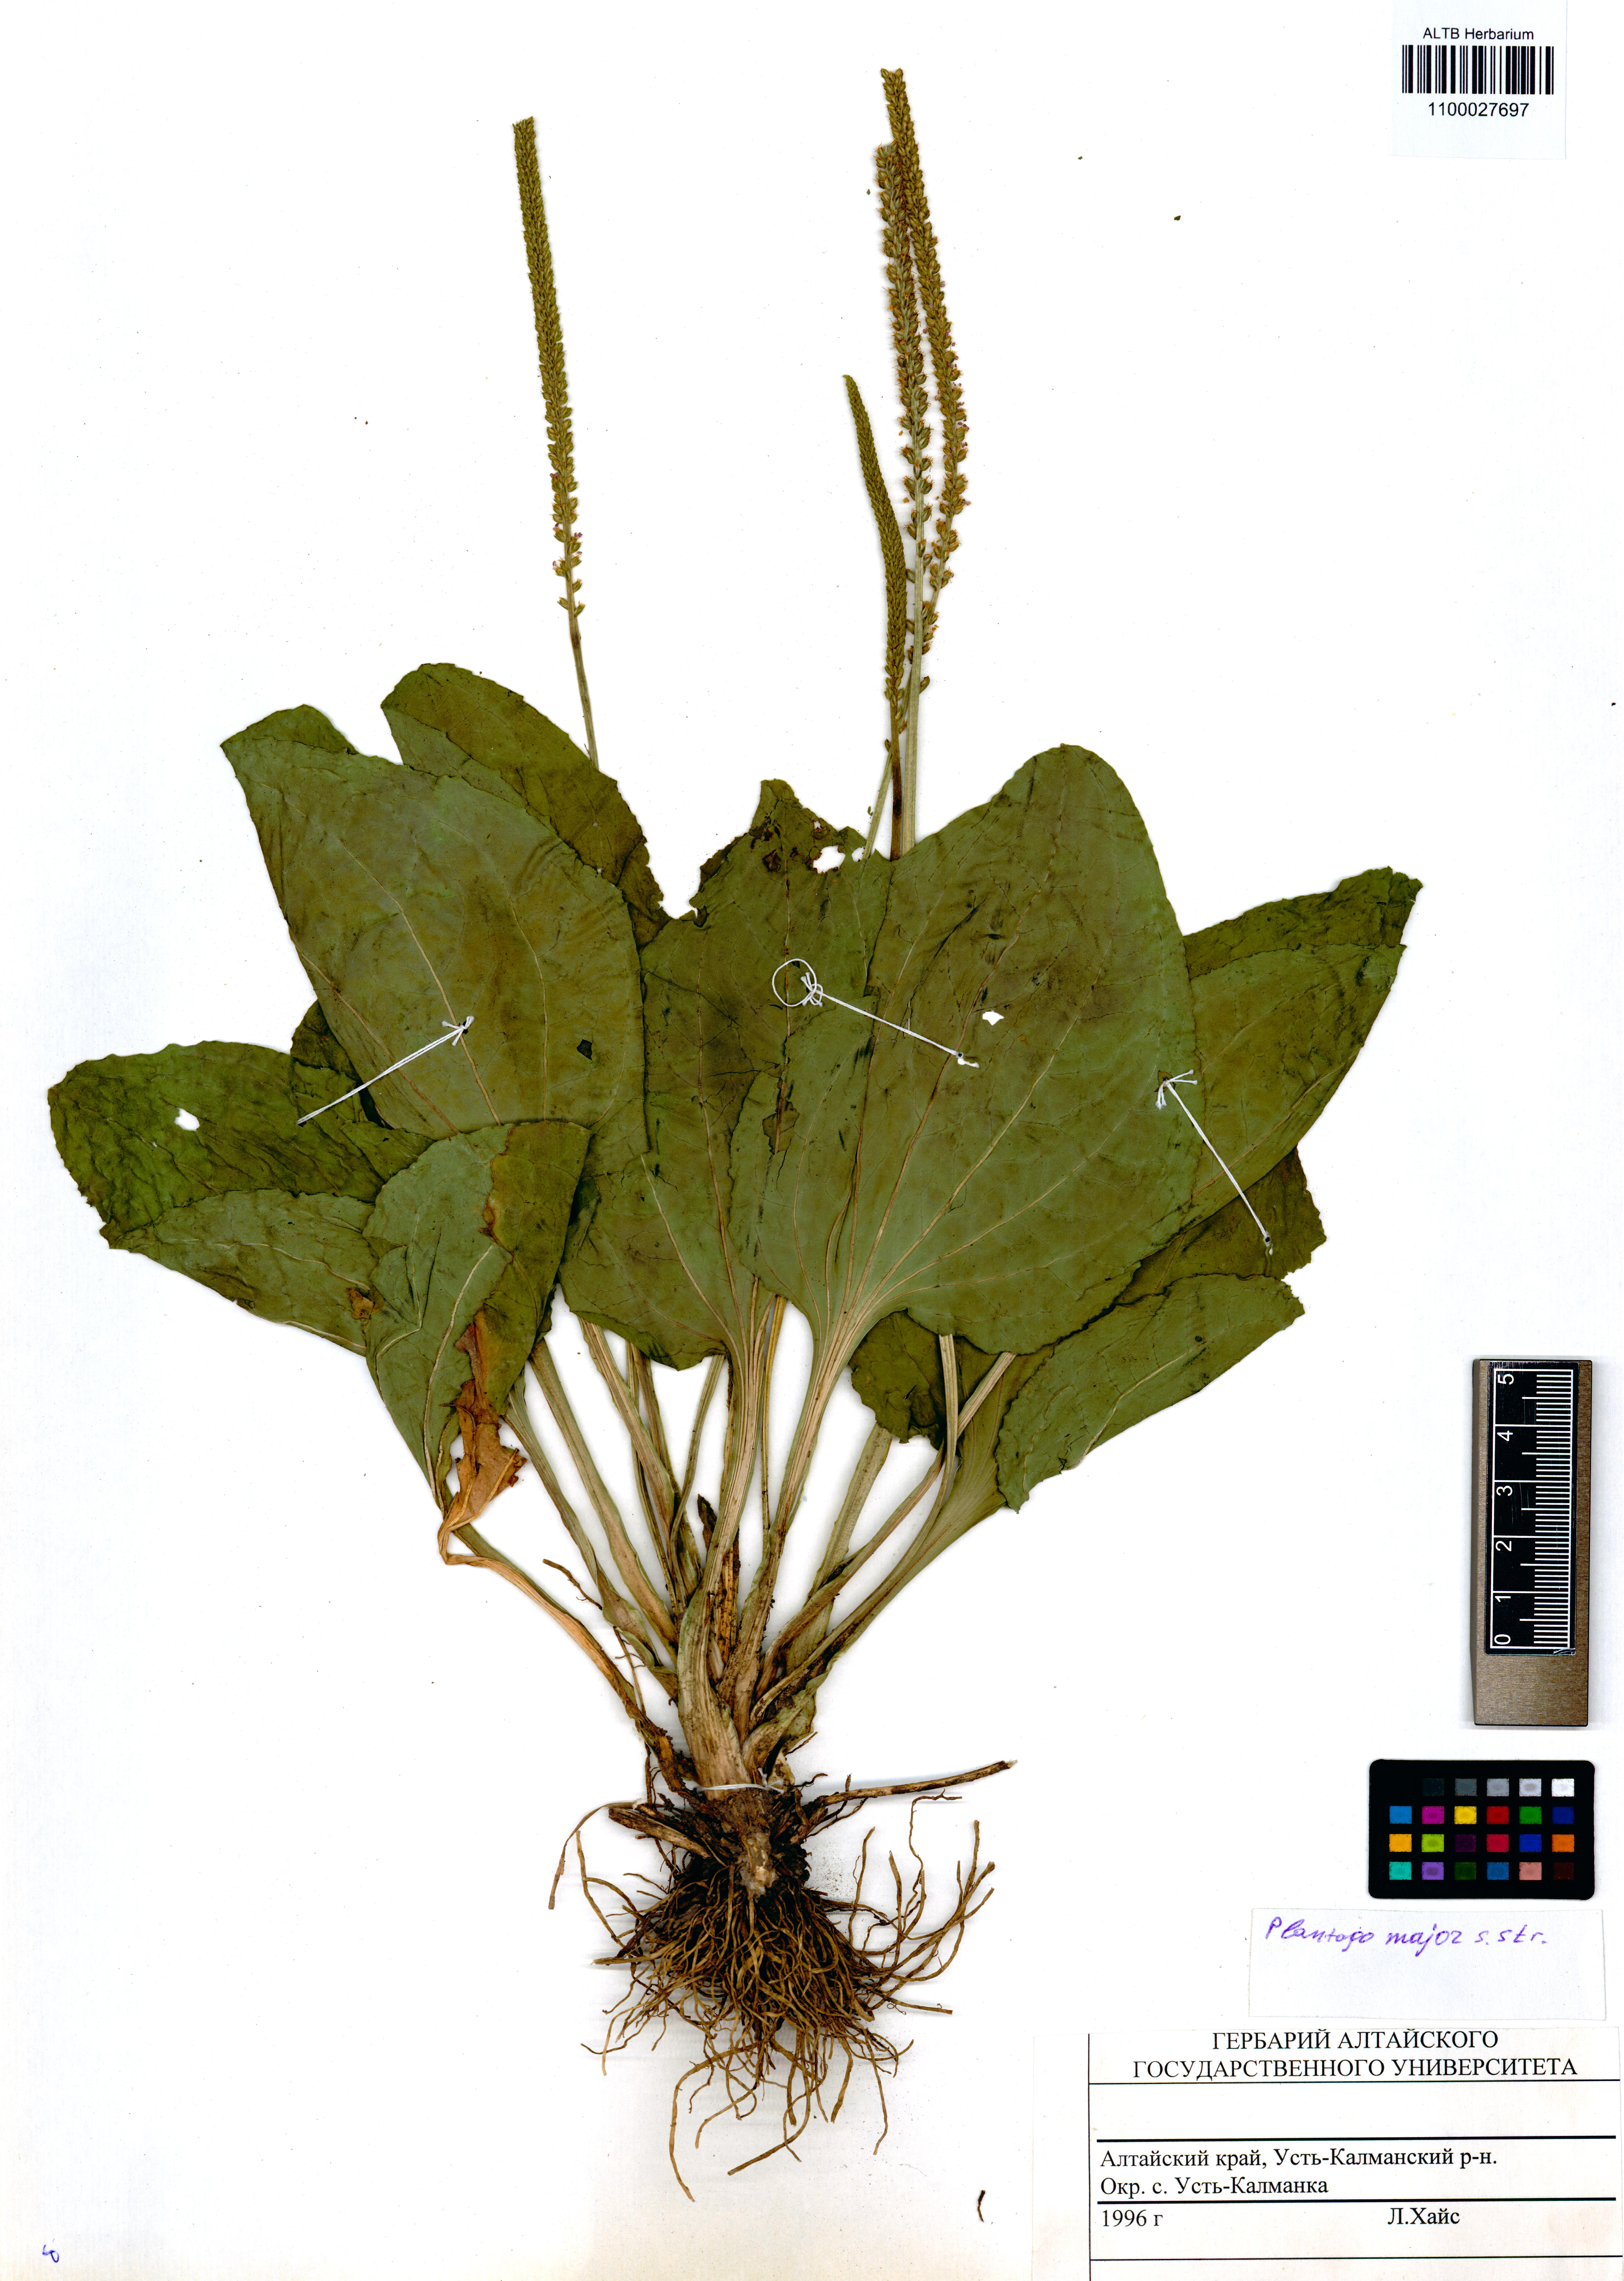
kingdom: Plantae
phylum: Tracheophyta
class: Magnoliopsida
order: Lamiales
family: Plantaginaceae
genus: Plantago
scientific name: Plantago major
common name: Common plantain
